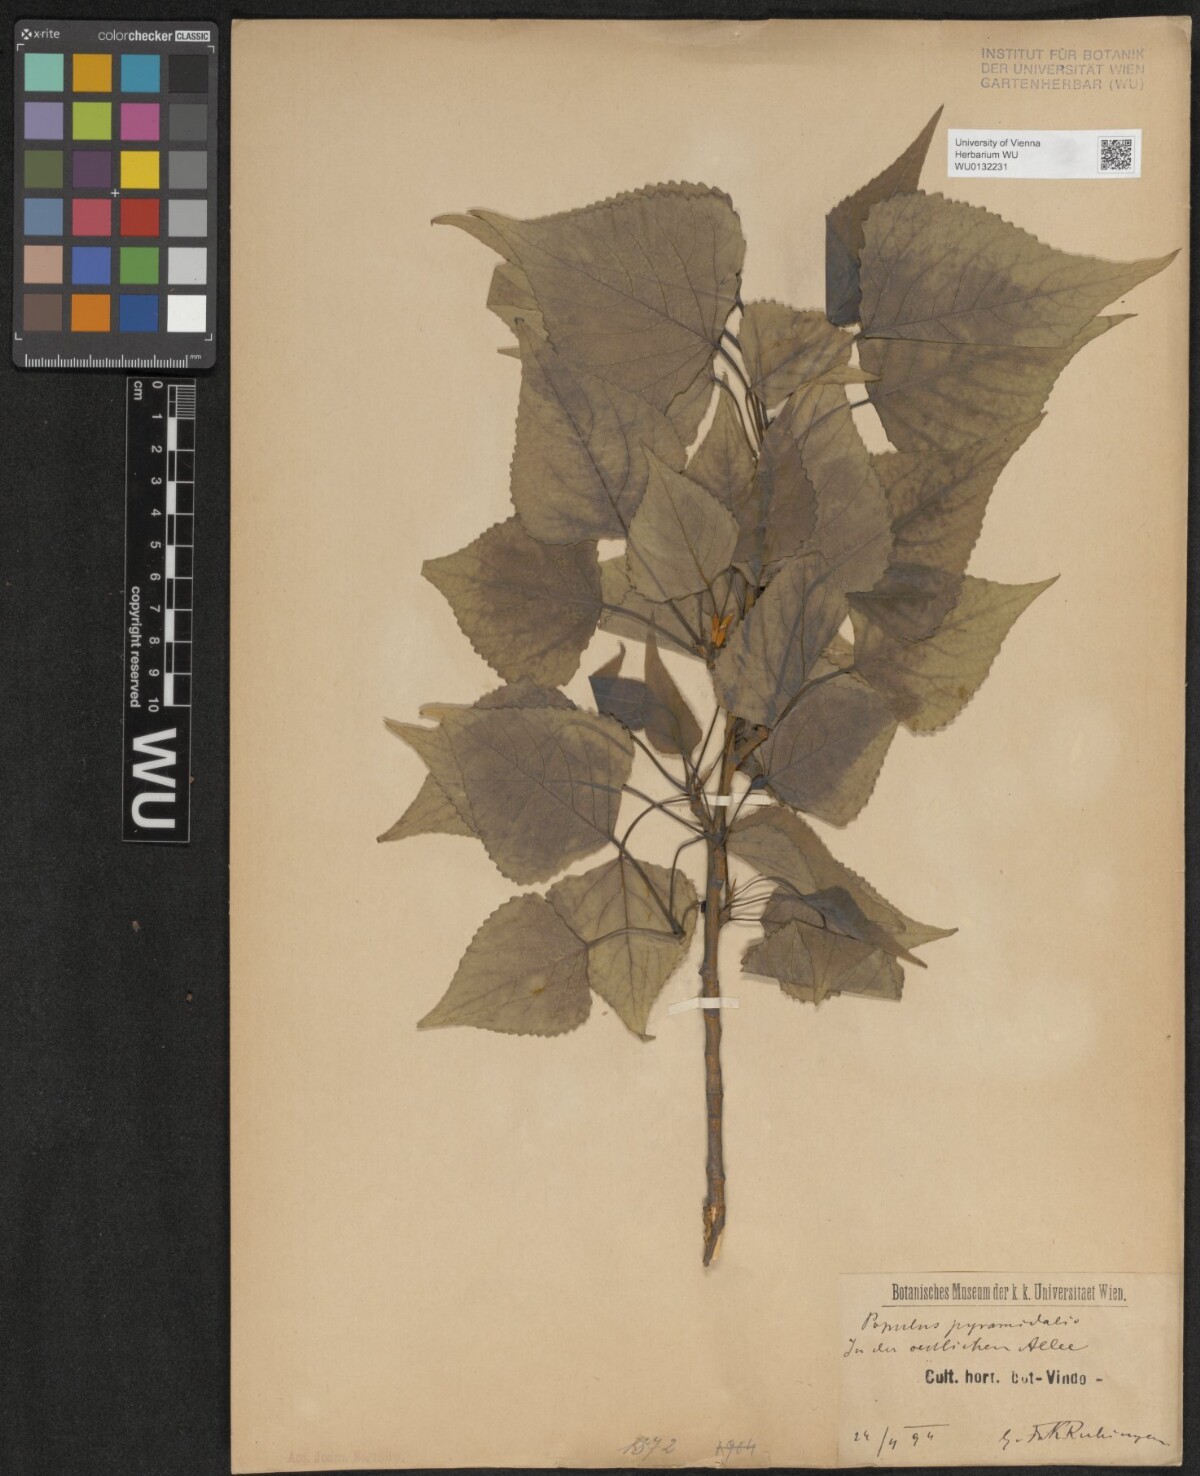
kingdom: Plantae
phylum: Tracheophyta
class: Magnoliopsida
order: Malpighiales
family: Salicaceae
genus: Populus
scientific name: Populus nigra
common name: Black poplar
